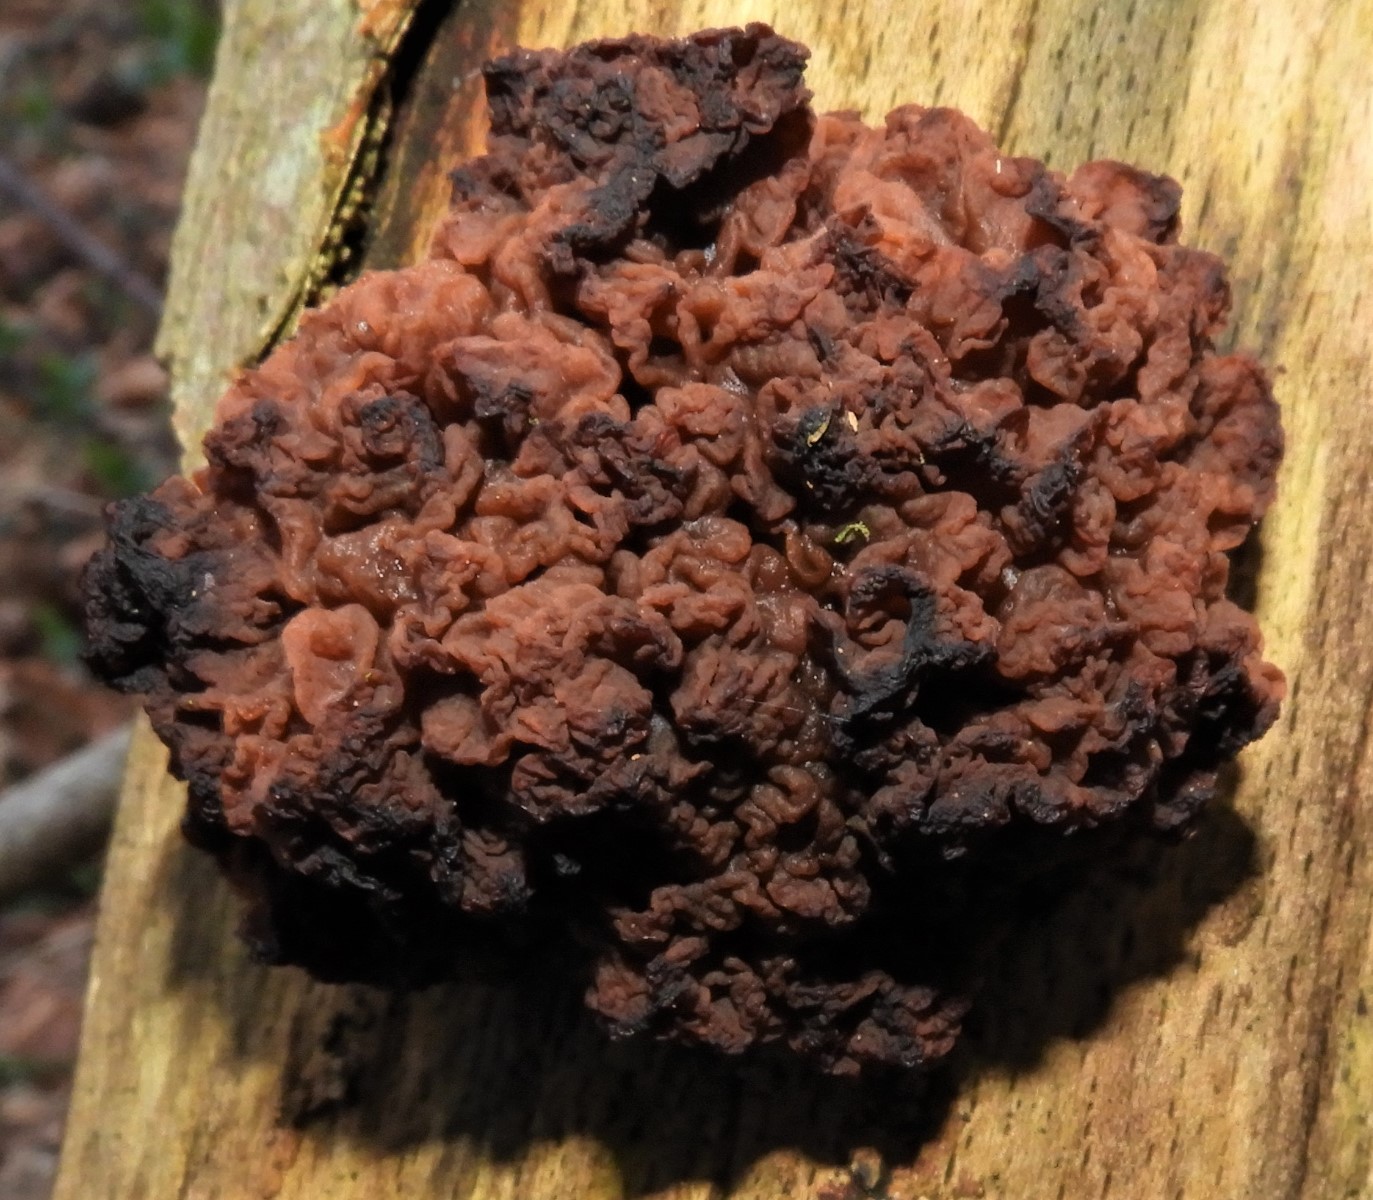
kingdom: Fungi
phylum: Basidiomycota
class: Tremellomycetes
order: Tremellales
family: Tremellaceae
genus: Phaeotremella
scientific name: Phaeotremella frondosa
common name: kæmpe-bævresvamp
